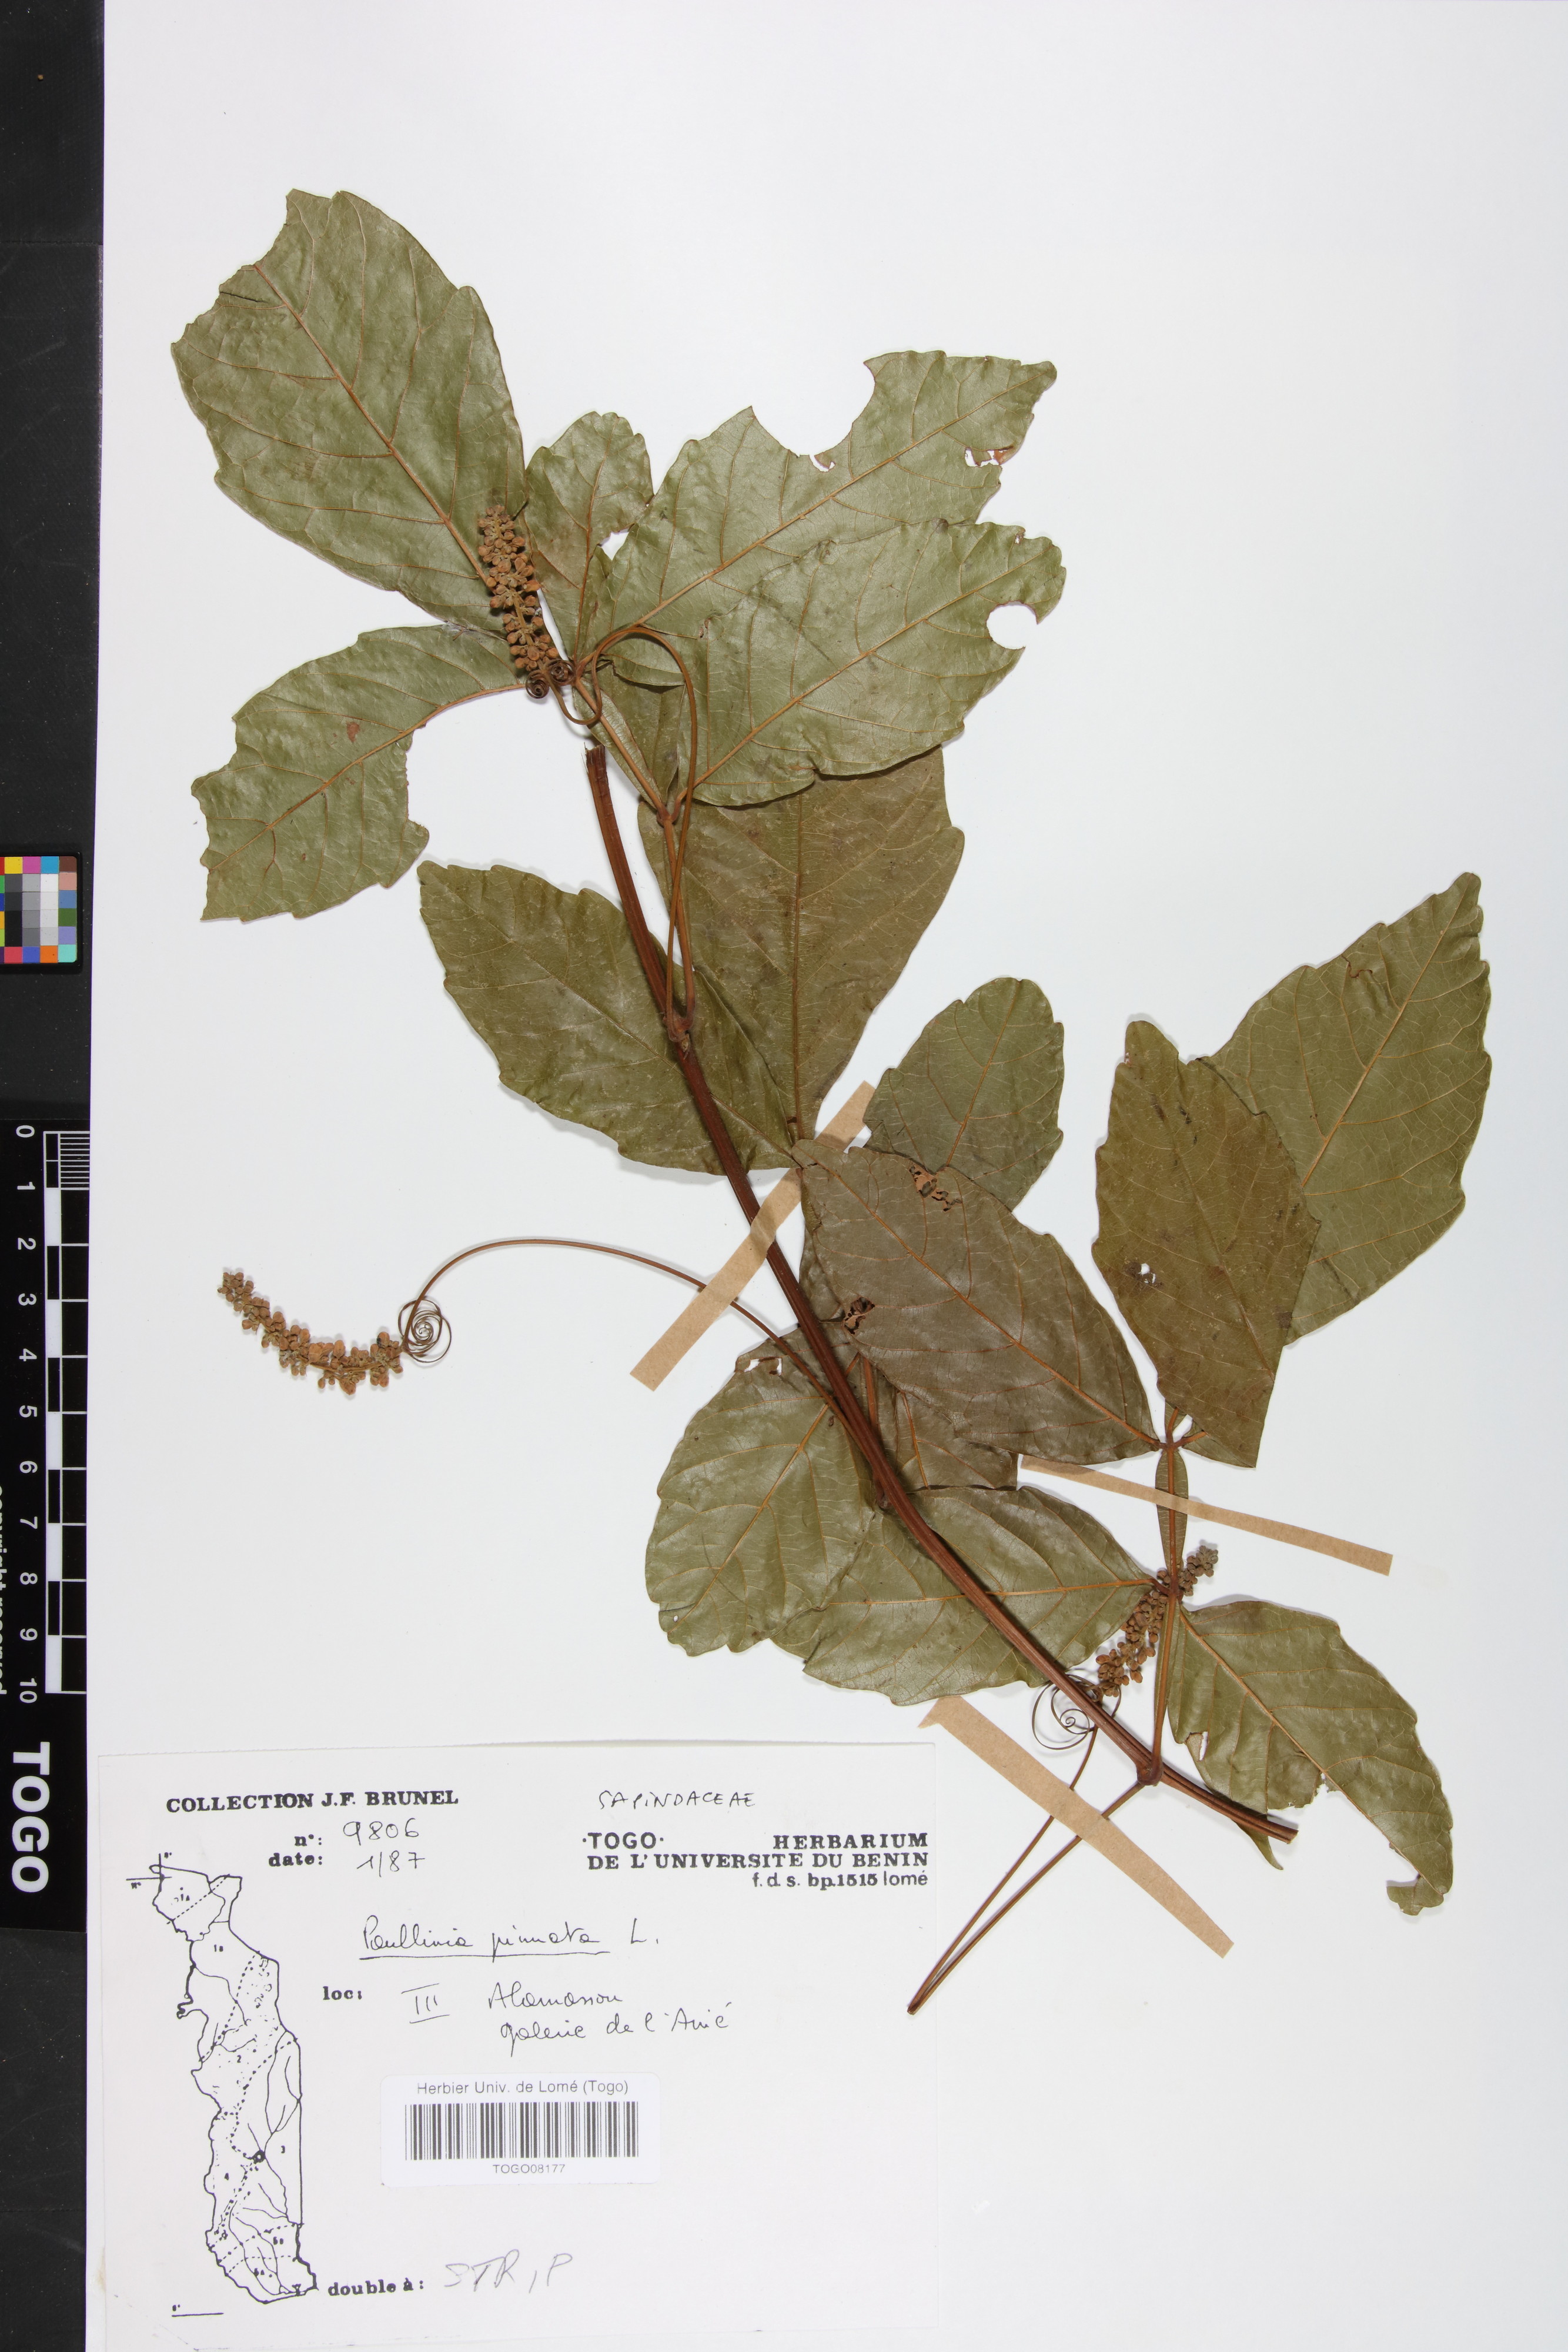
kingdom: Plantae
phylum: Tracheophyta
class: Magnoliopsida
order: Sapindales
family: Sapindaceae
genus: Paullinia
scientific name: Paullinia pinnata
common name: Barbasco
